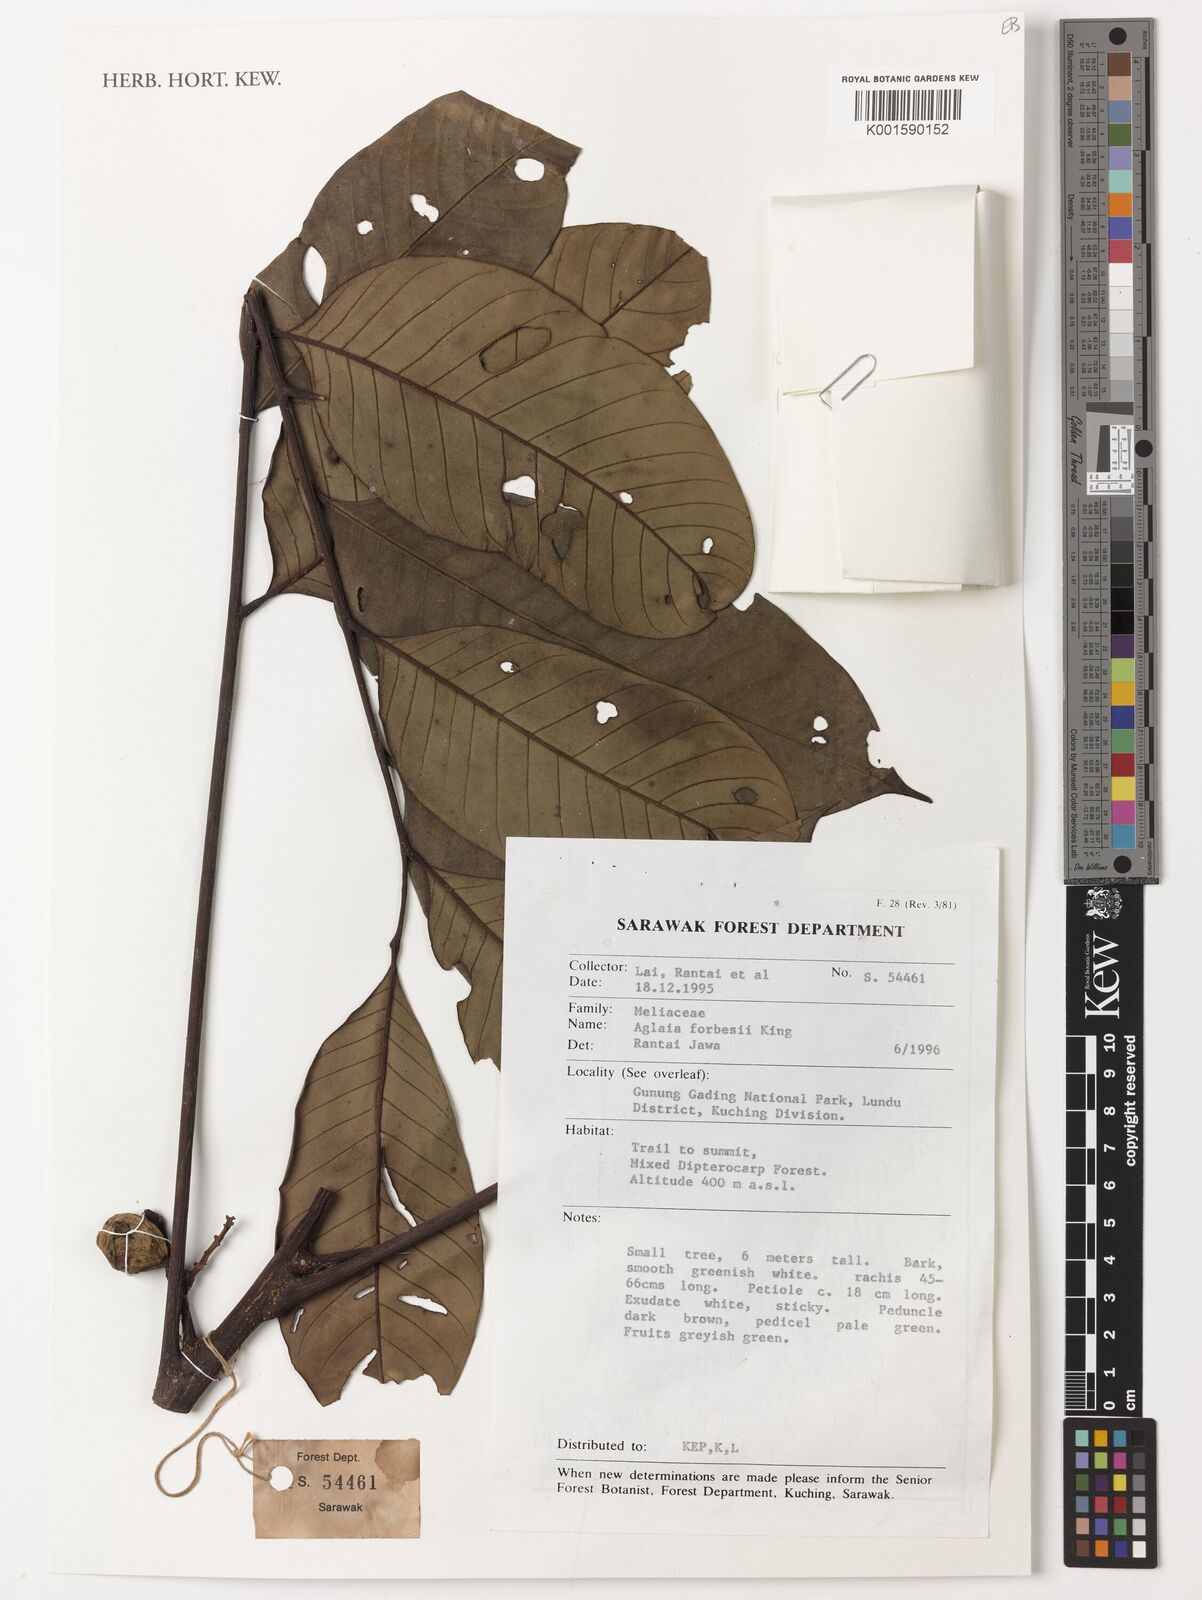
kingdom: Plantae
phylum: Tracheophyta
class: Magnoliopsida
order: Sapindales
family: Meliaceae
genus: Aglaia
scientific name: Aglaia forbesii
